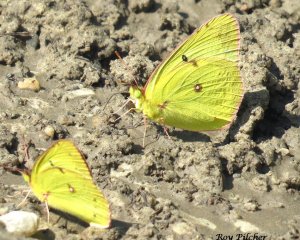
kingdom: Animalia
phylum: Arthropoda
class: Insecta
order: Lepidoptera
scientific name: Lepidoptera
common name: Butterflies
